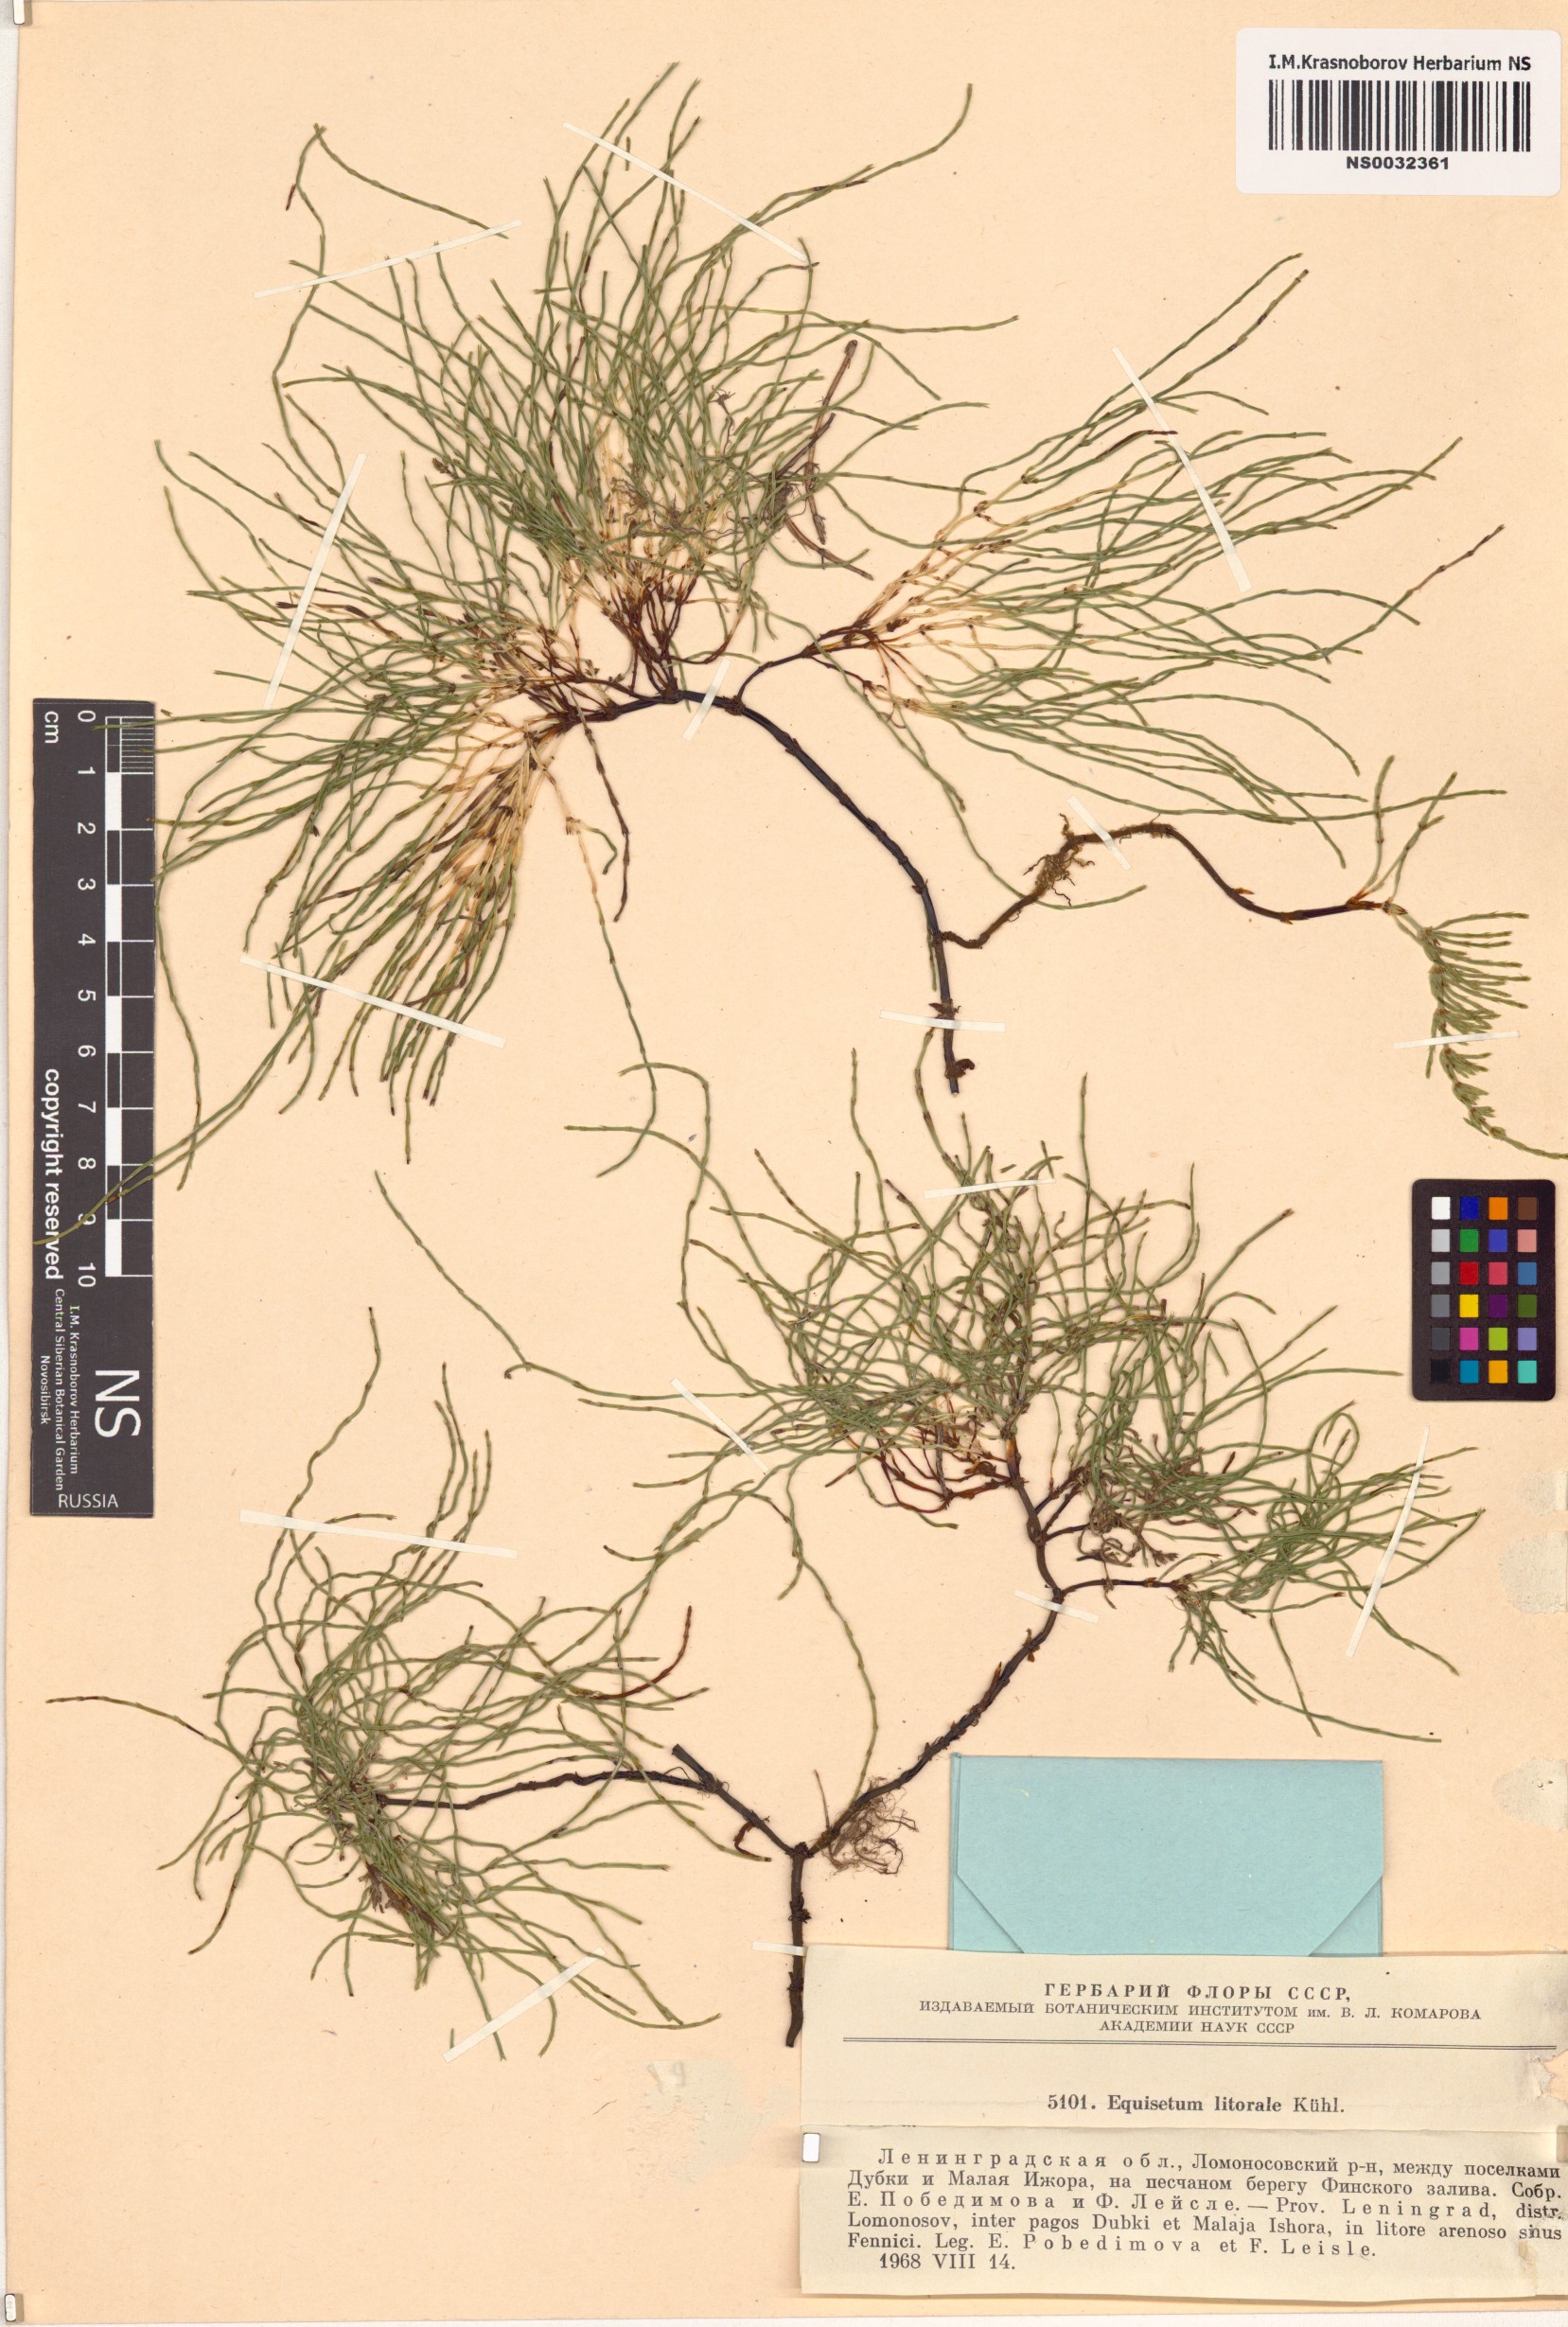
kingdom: Plantae
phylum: Tracheophyta
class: Polypodiopsida
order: Equisetales
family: Equisetaceae
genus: Equisetum
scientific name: Equisetum litorale
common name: Littoral horsetail
